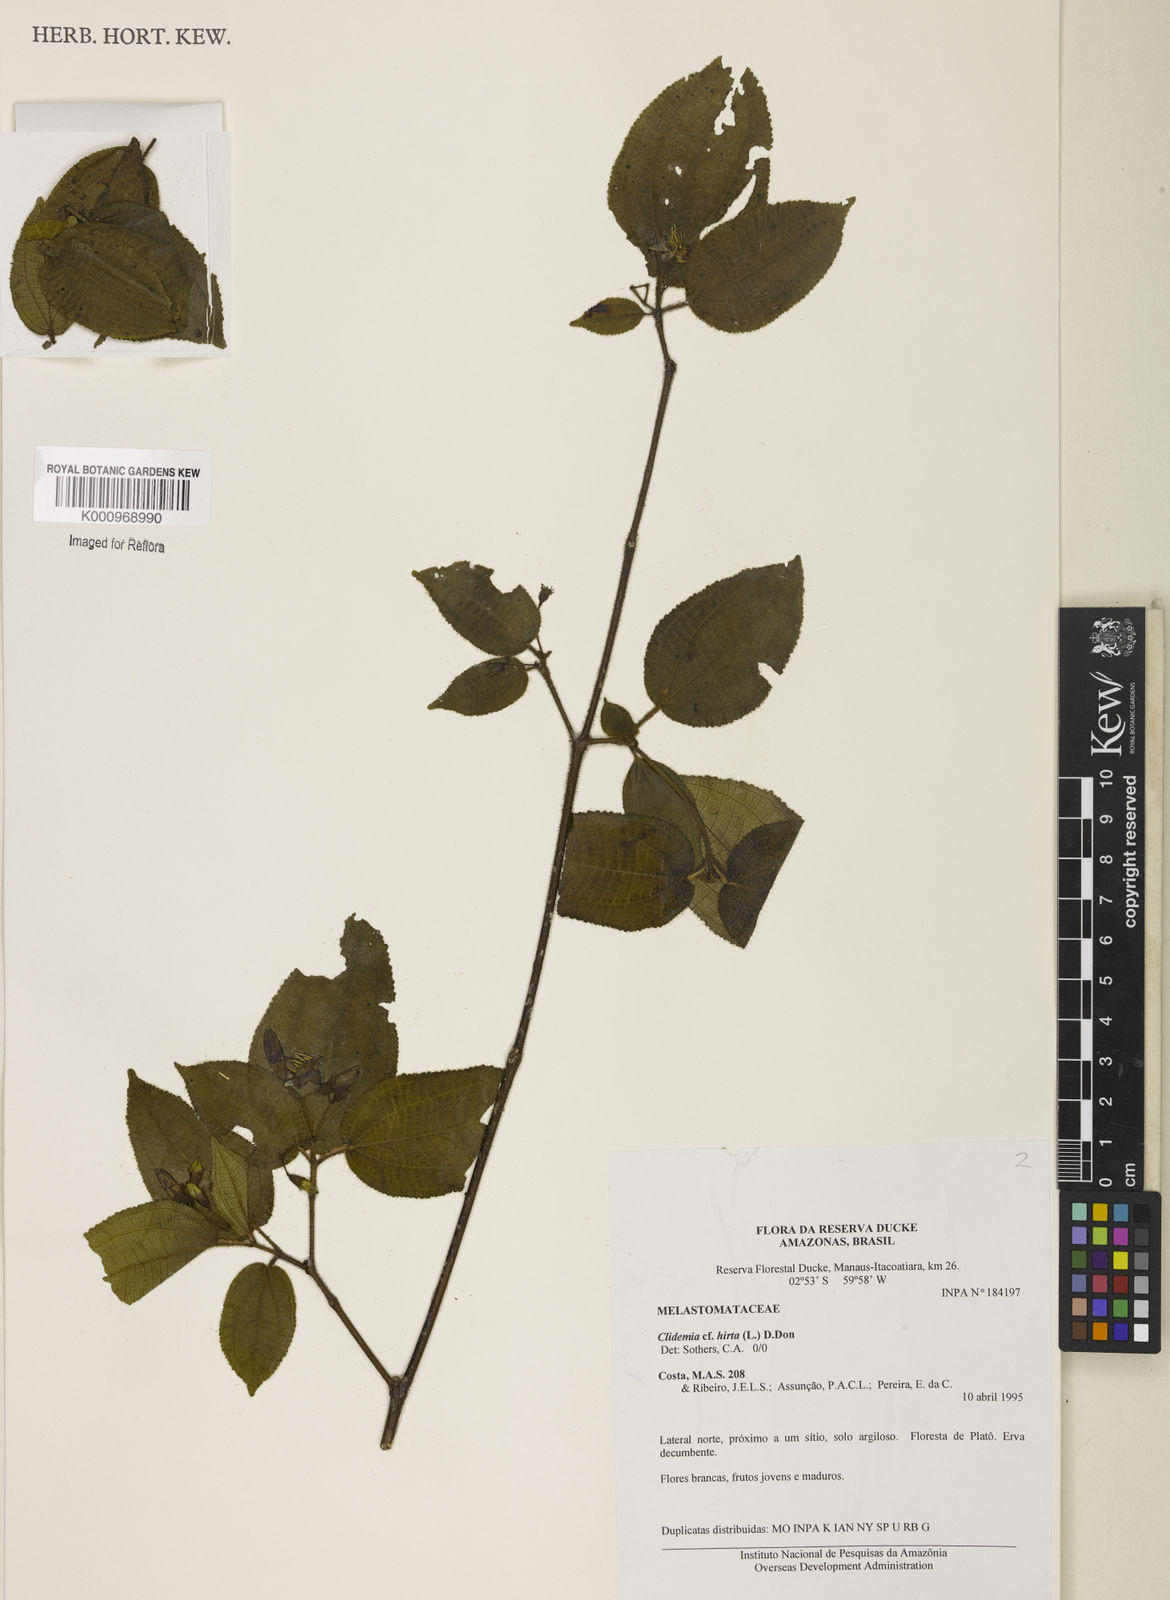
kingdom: Plantae
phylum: Tracheophyta
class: Magnoliopsida
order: Myrtales
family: Melastomataceae
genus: Miconia
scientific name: Miconia crenata
